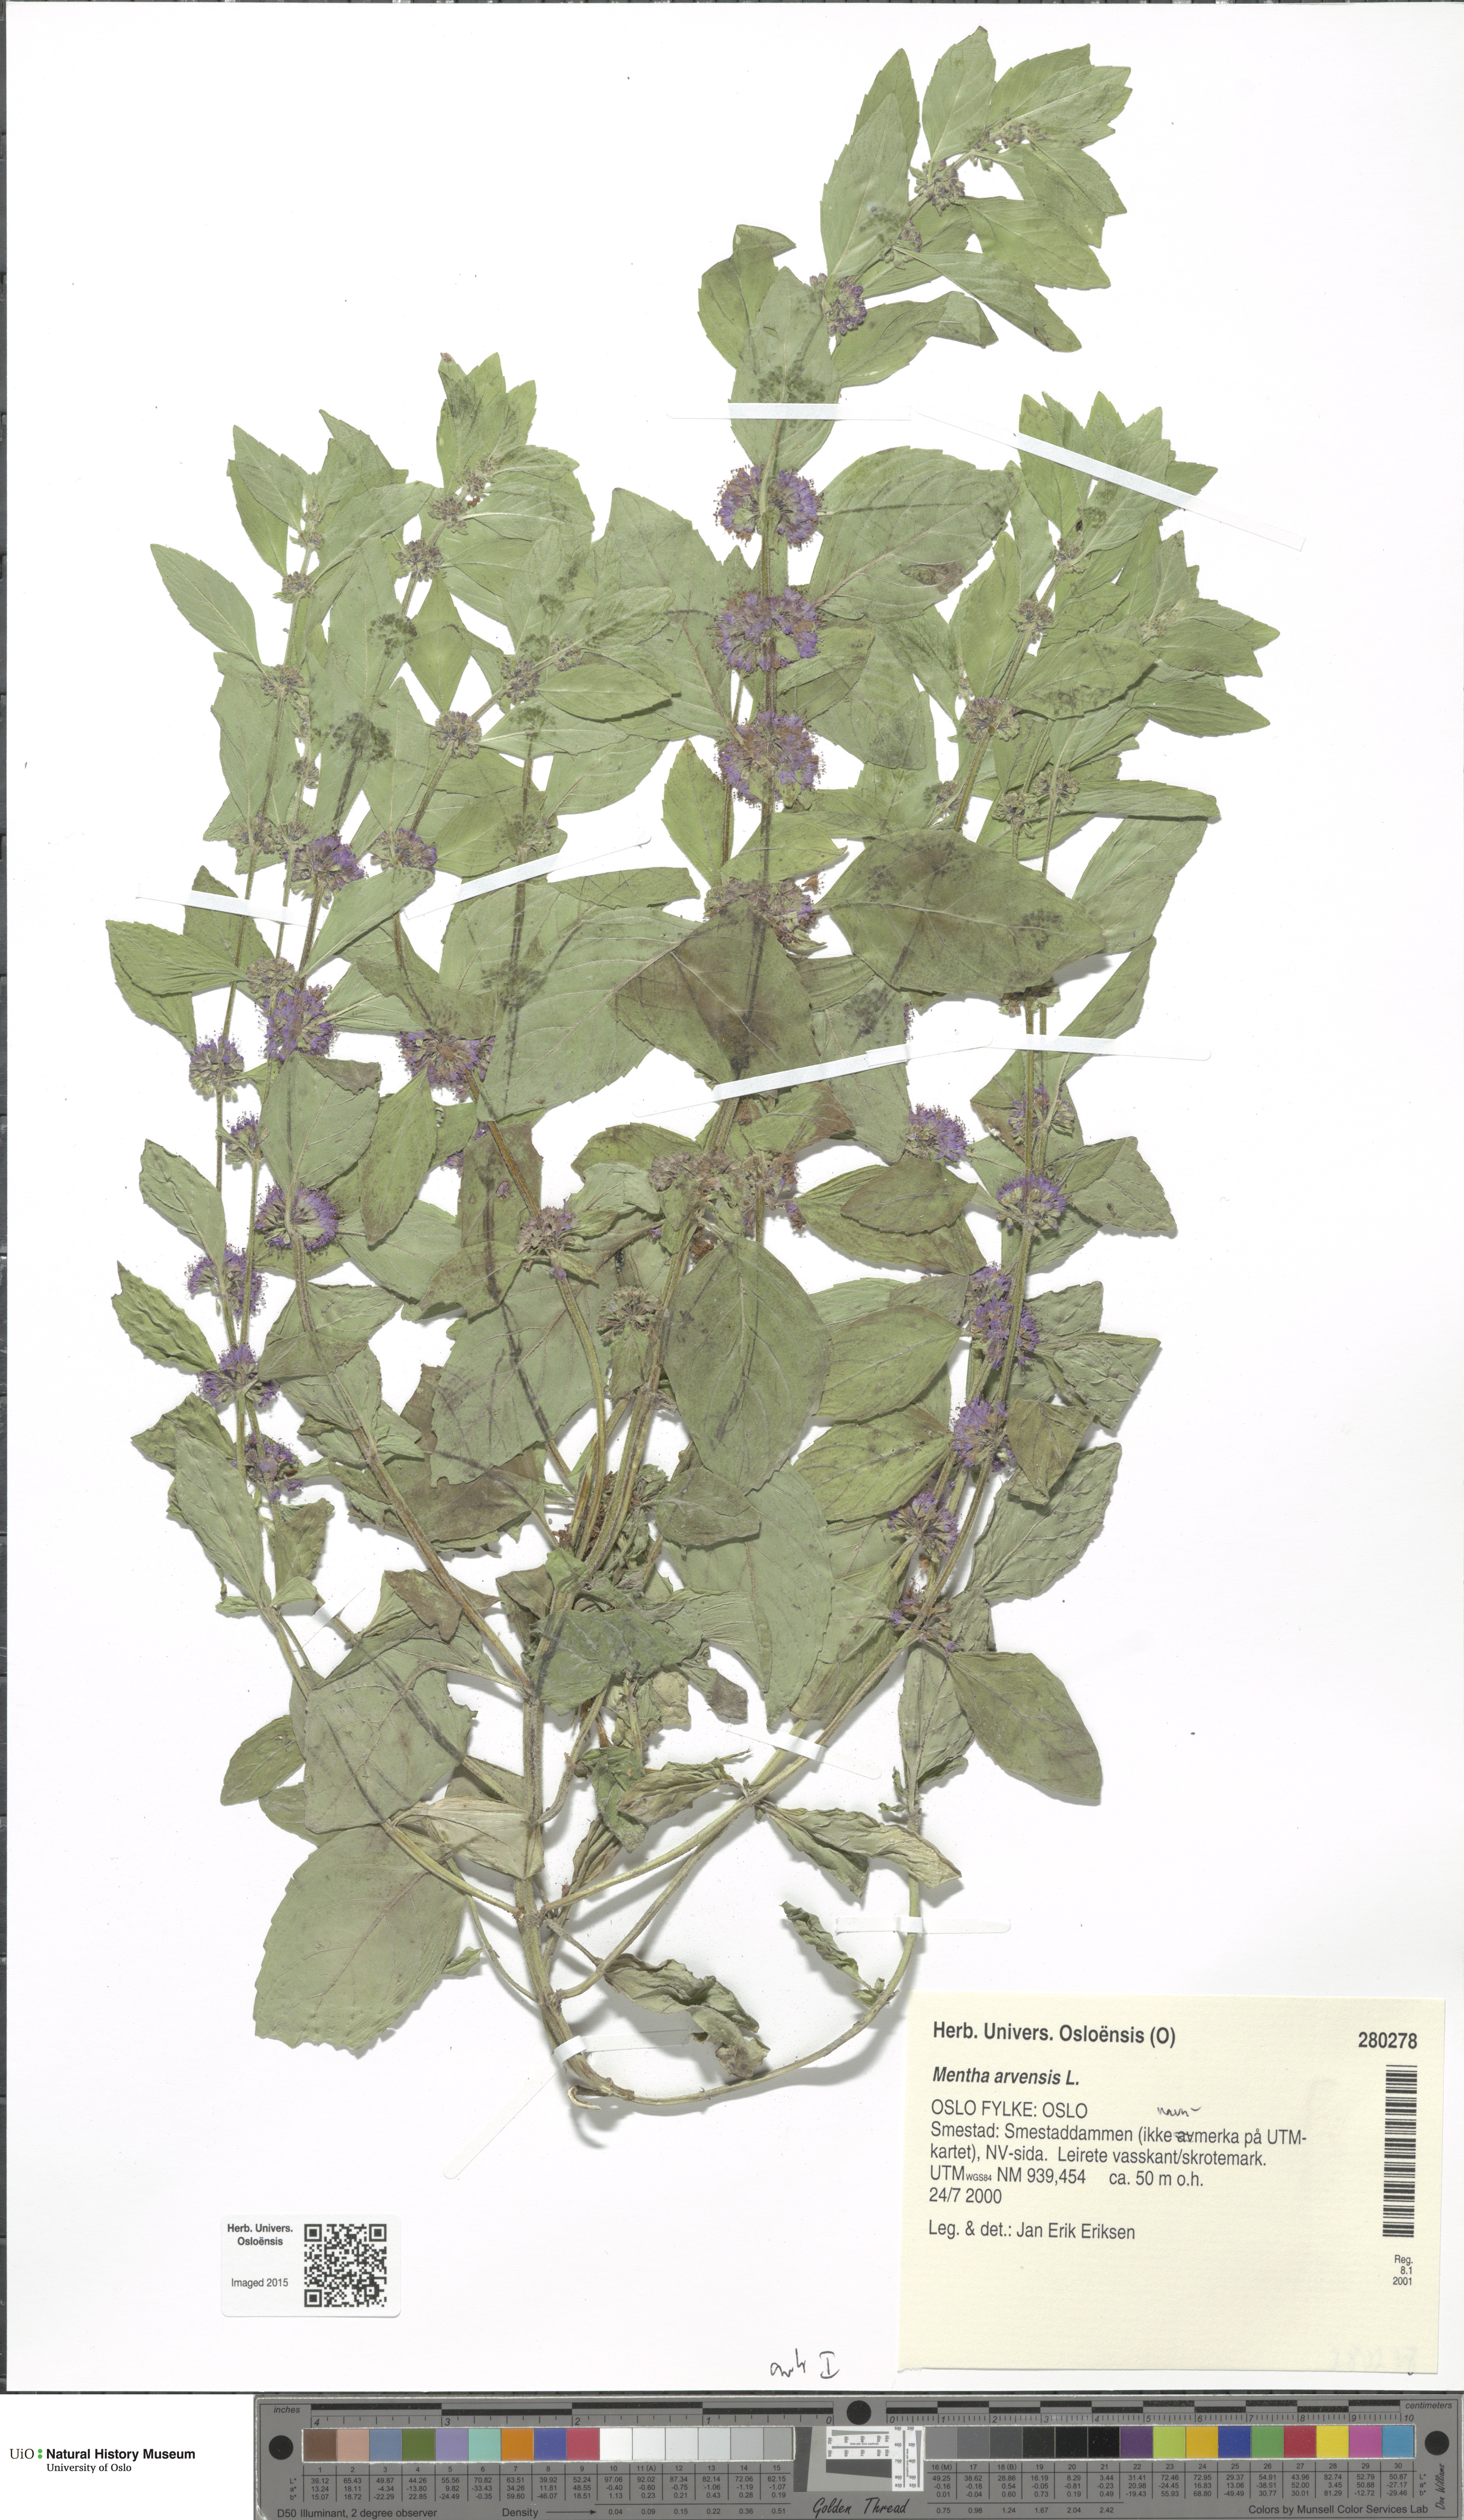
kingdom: Plantae
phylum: Tracheophyta
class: Magnoliopsida
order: Lamiales
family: Lamiaceae
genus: Mentha
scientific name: Mentha arvensis
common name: Corn mint
